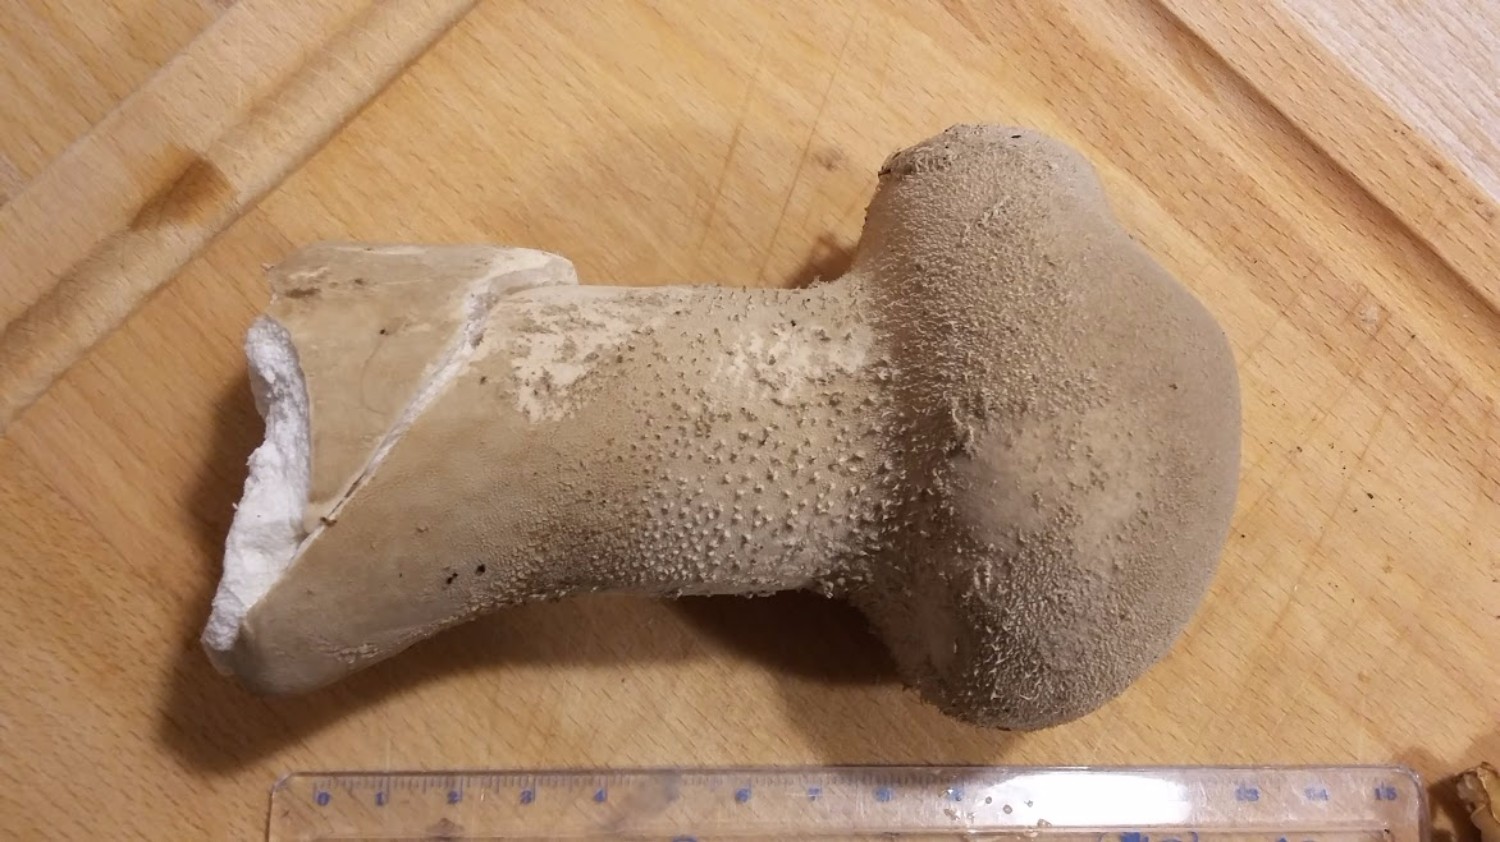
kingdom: Fungi
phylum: Basidiomycota
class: Agaricomycetes
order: Agaricales
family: Lycoperdaceae
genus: Lycoperdon
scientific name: Lycoperdon excipuliforme
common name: højstokket støvbold
